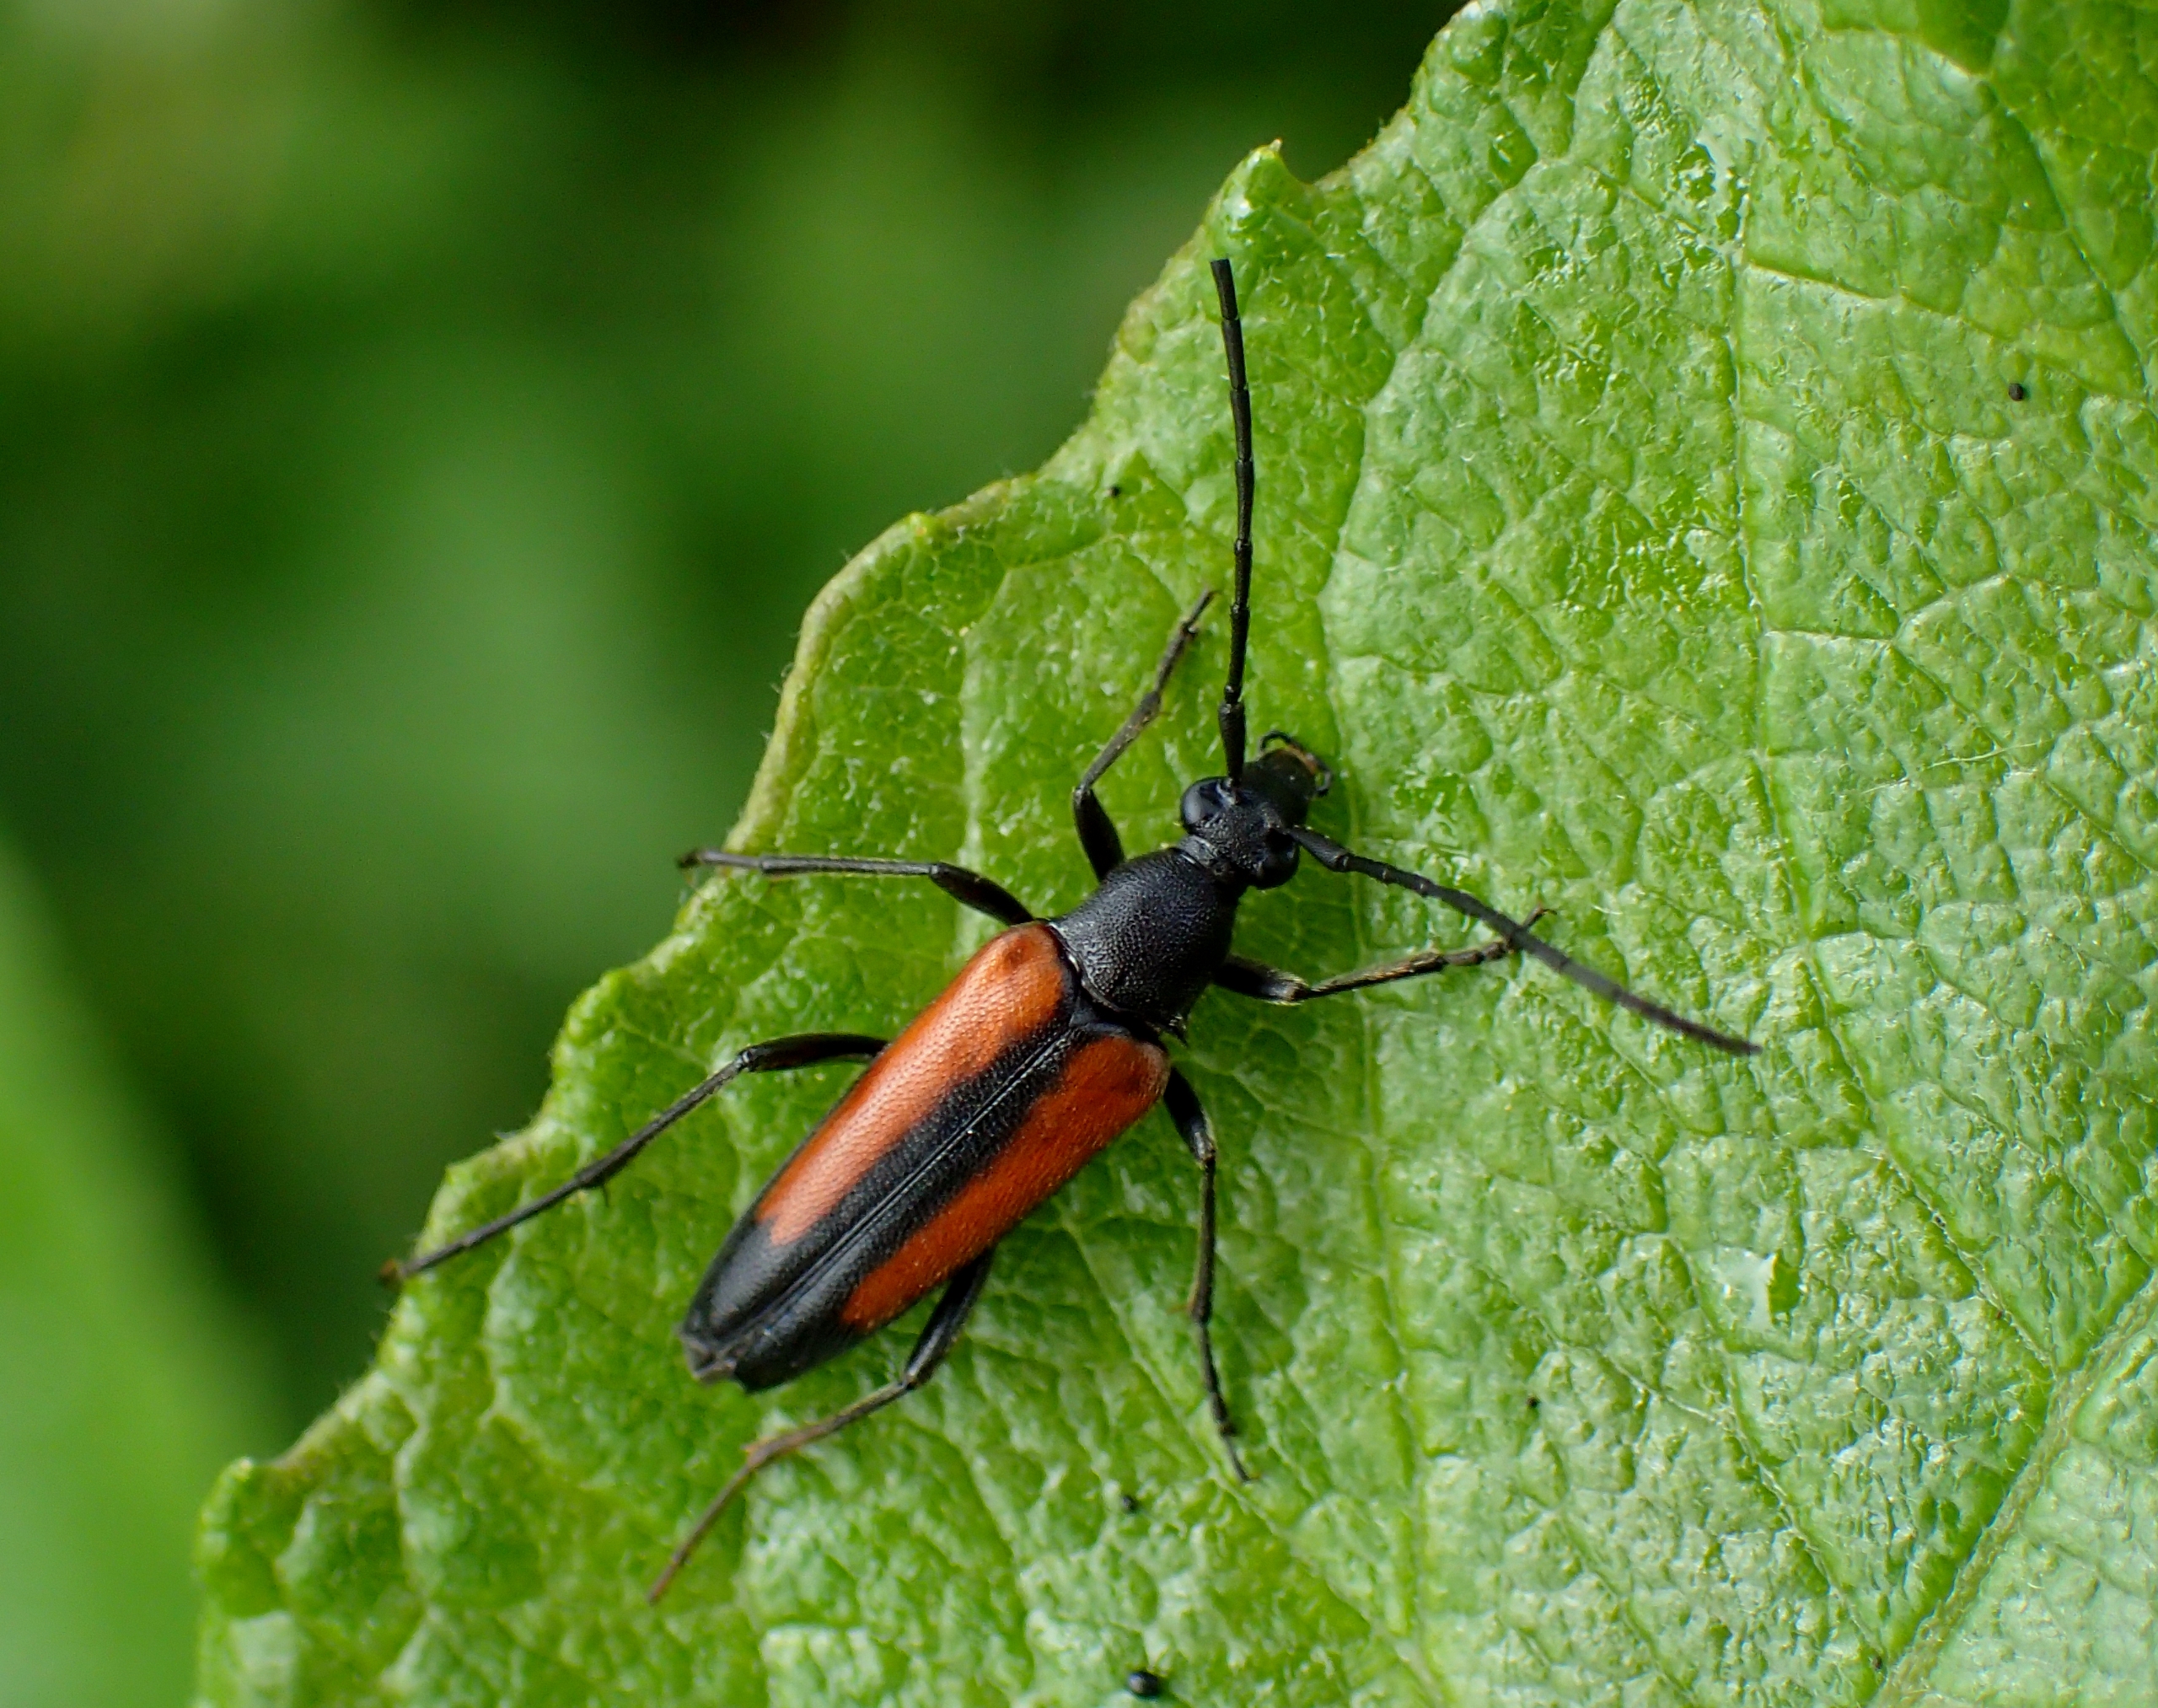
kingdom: Animalia
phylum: Arthropoda
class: Insecta
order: Coleoptera
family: Cerambycidae
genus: Stenurella
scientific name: Stenurella melanura
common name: Sortsømmet blomsterbuk
